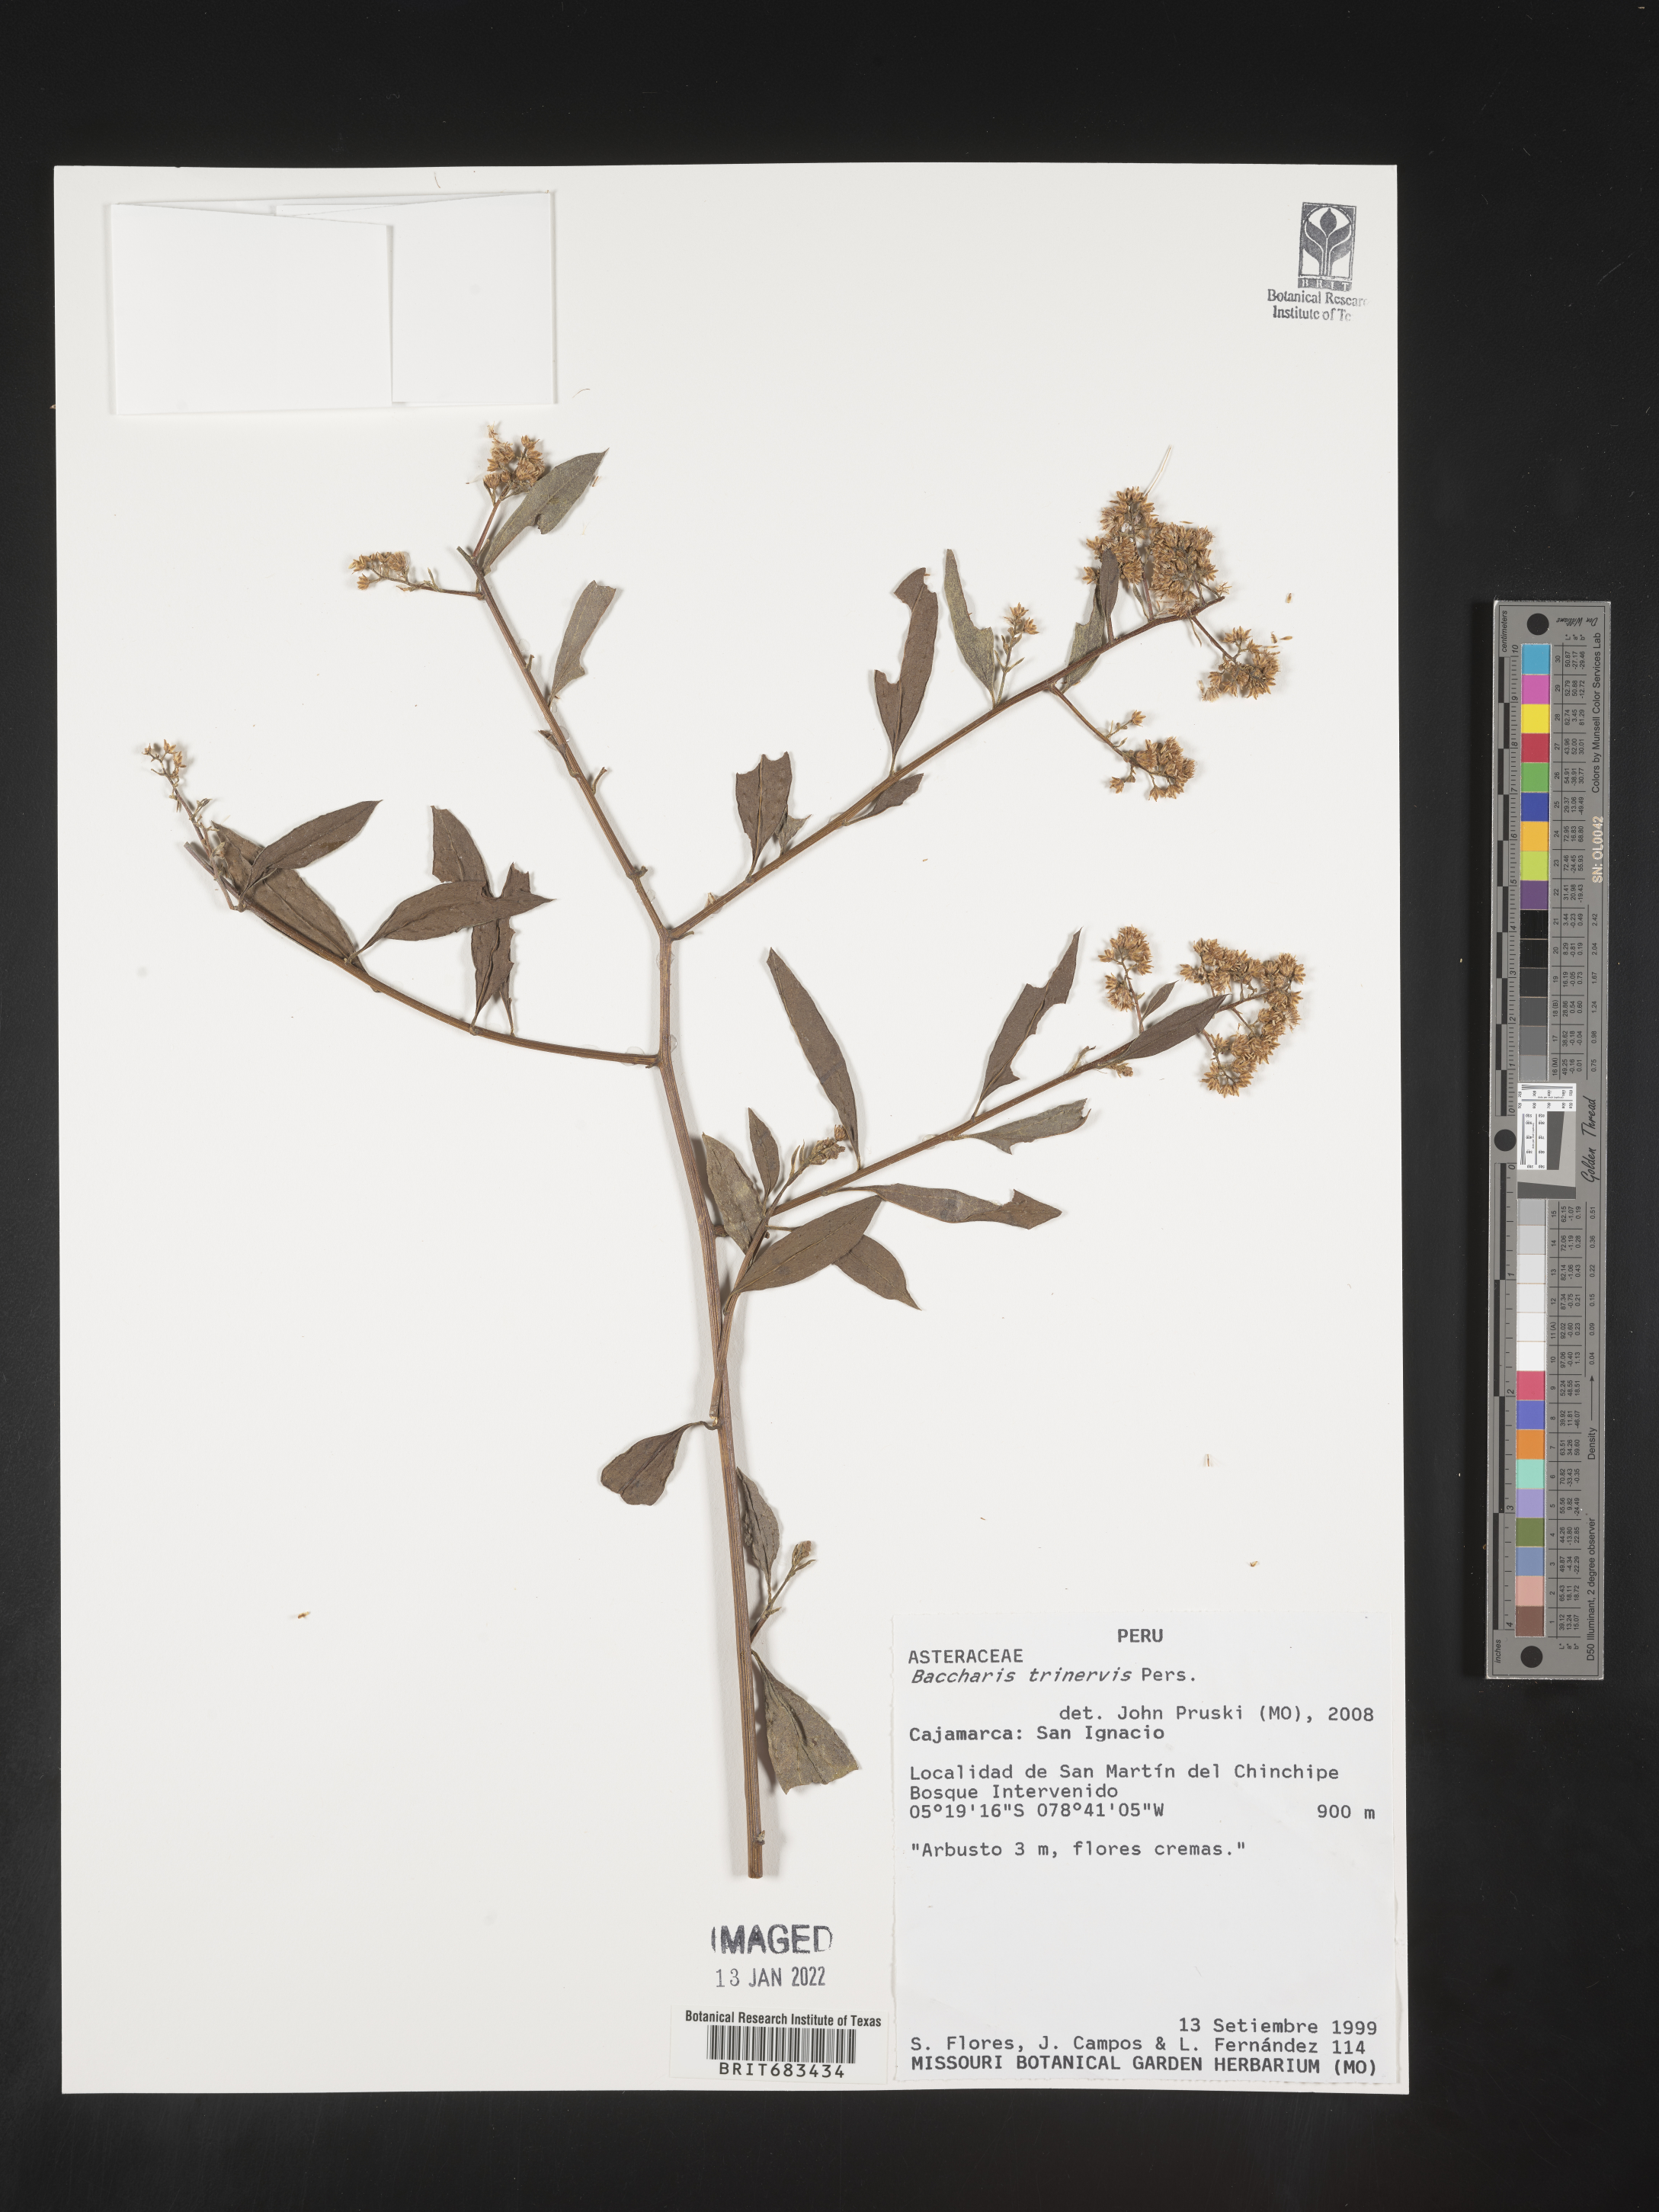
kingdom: Plantae
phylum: Tracheophyta
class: Magnoliopsida
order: Asterales
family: Asteraceae
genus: Baccharis
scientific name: Baccharis trinervis
